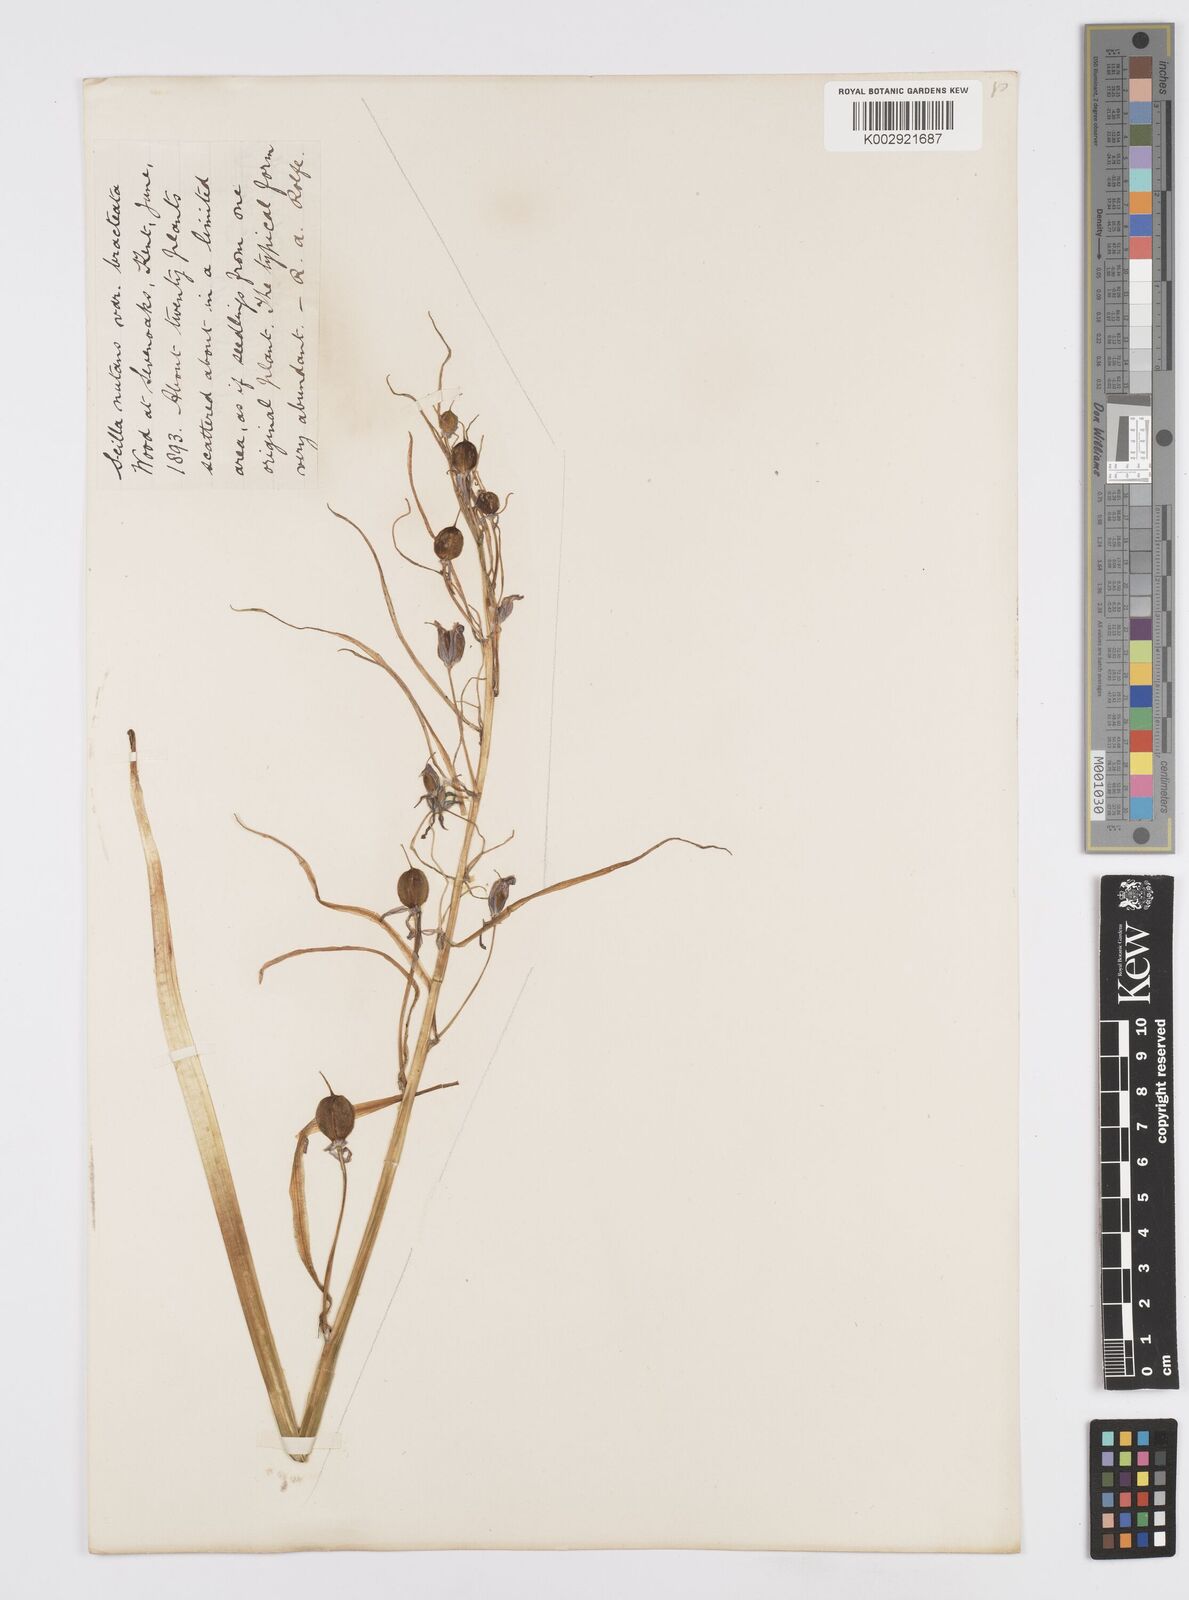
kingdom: Plantae
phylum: Tracheophyta
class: Liliopsida
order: Asparagales
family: Asparagaceae
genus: Hyacinthoides
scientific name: Hyacinthoides
